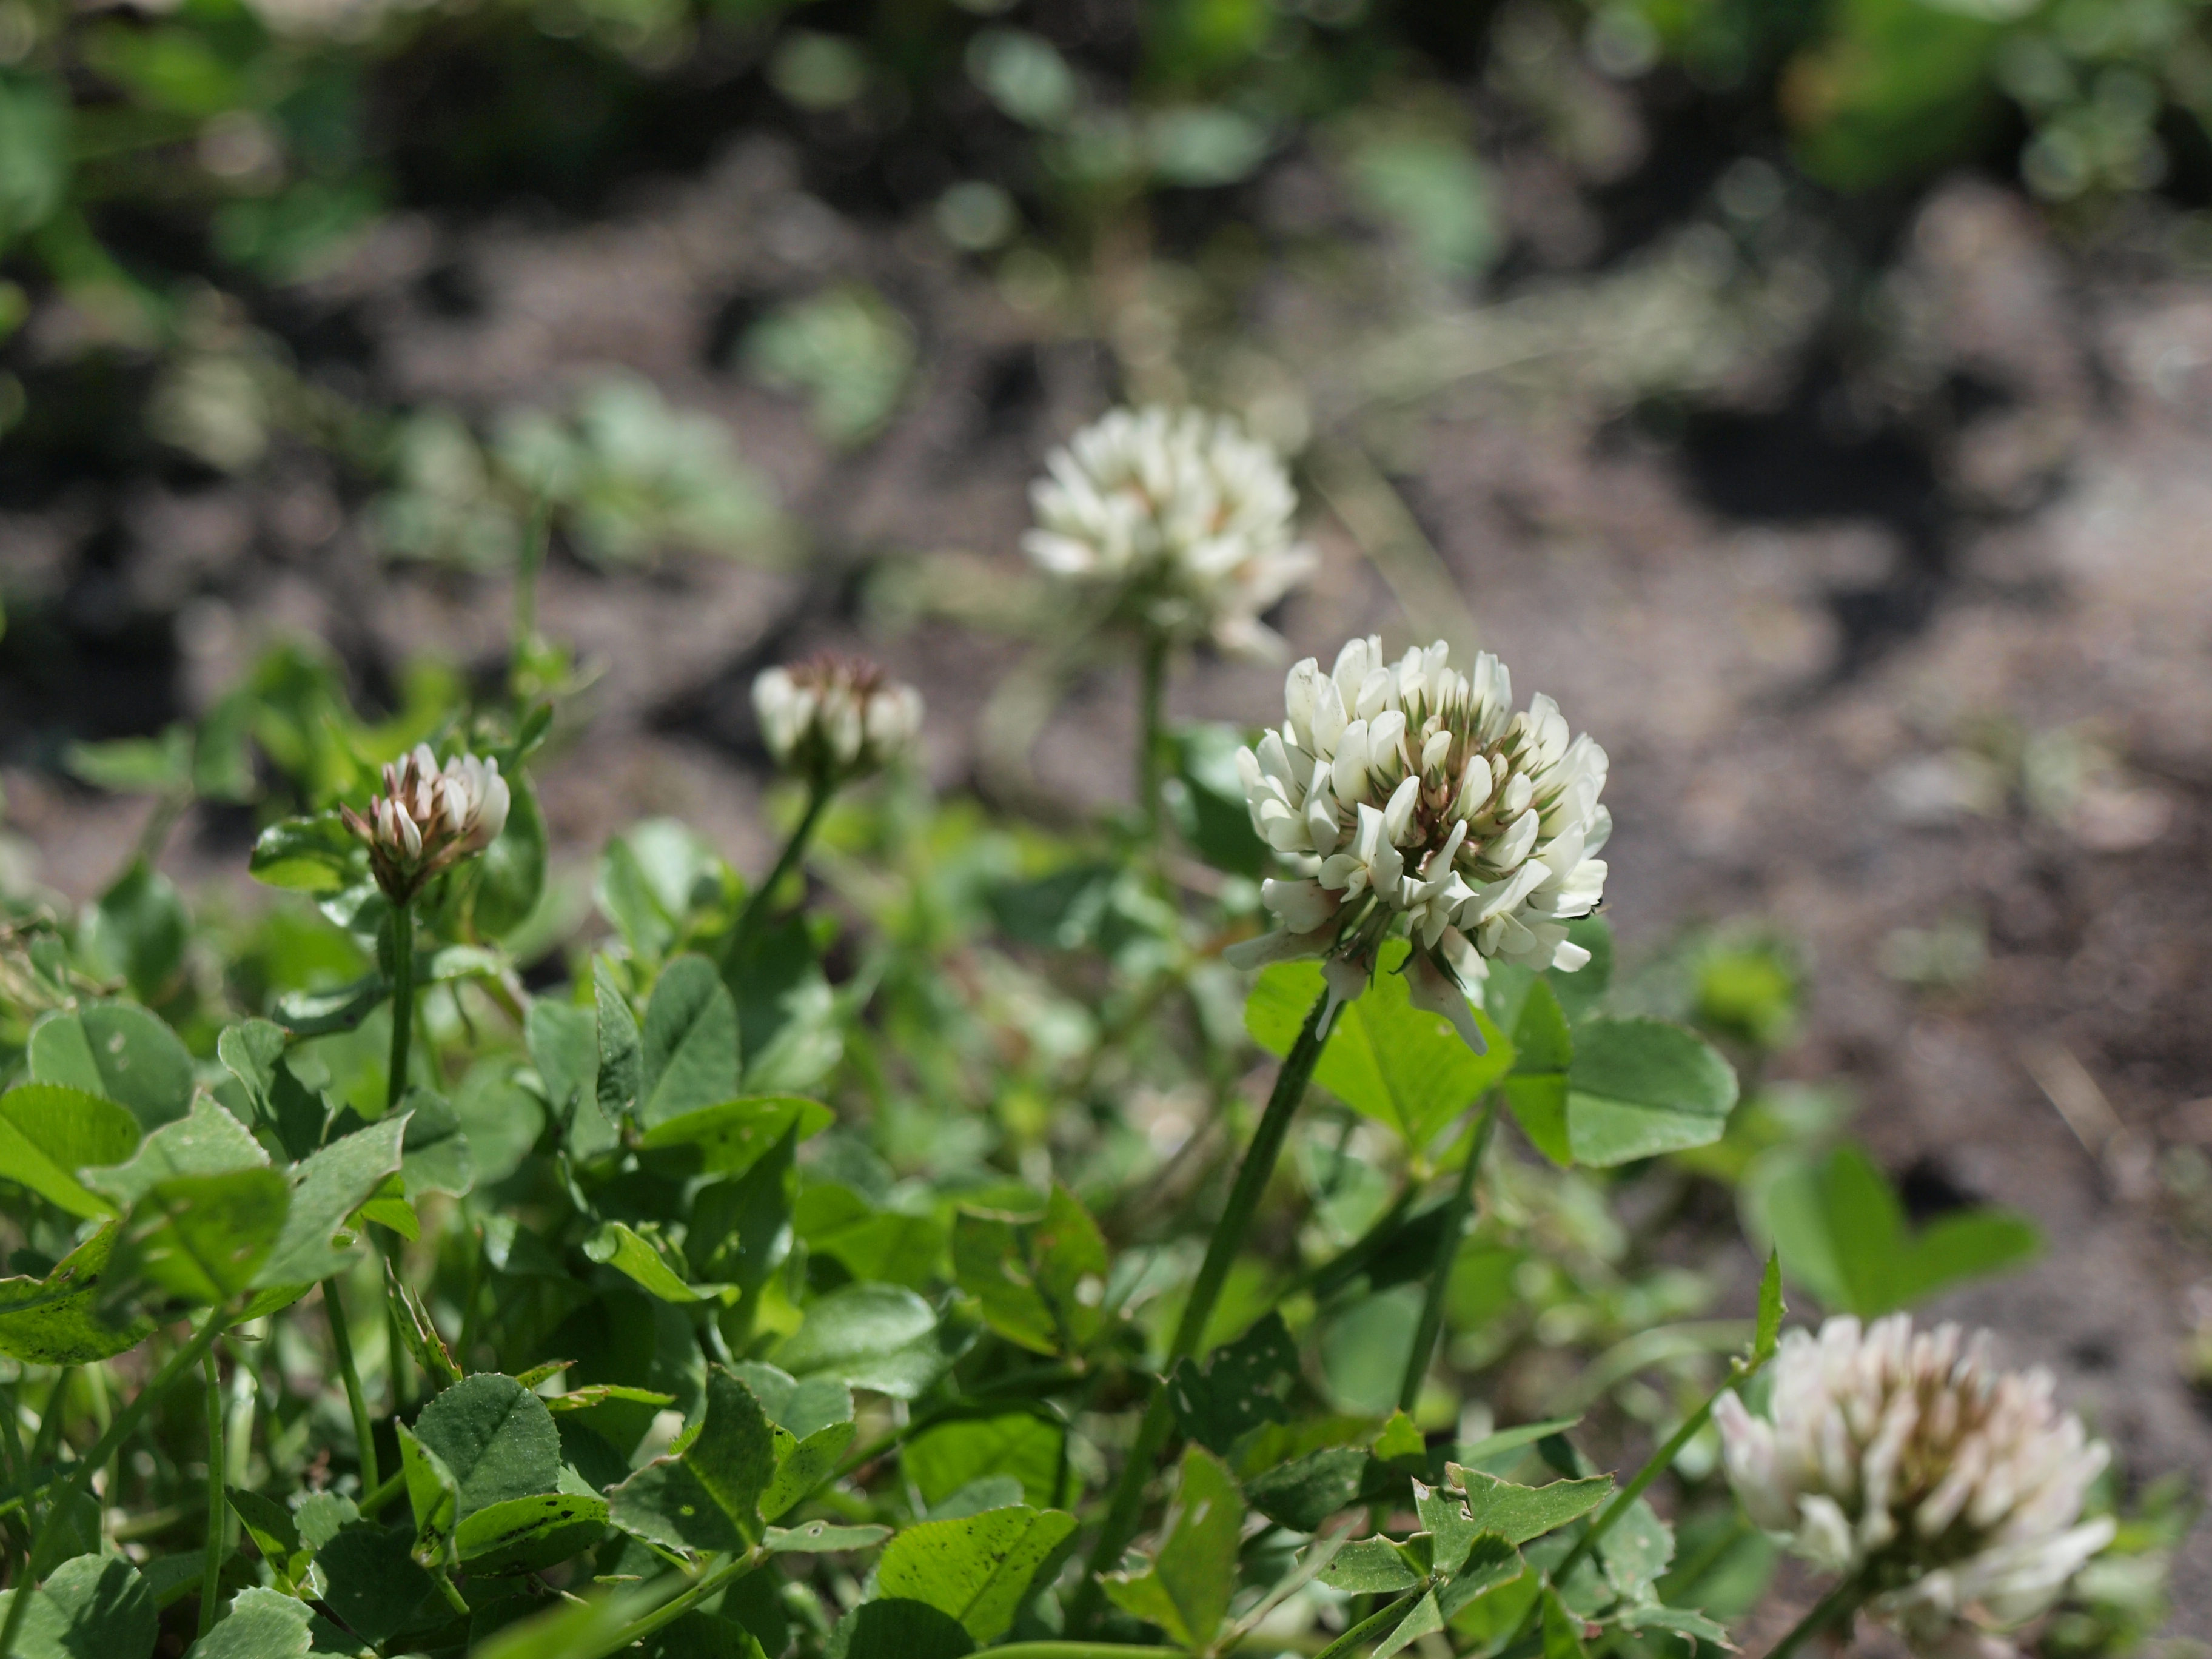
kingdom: Plantae
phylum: Tracheophyta
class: Magnoliopsida
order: Fabales
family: Fabaceae
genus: Trifolium
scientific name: Trifolium repens
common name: White clover
